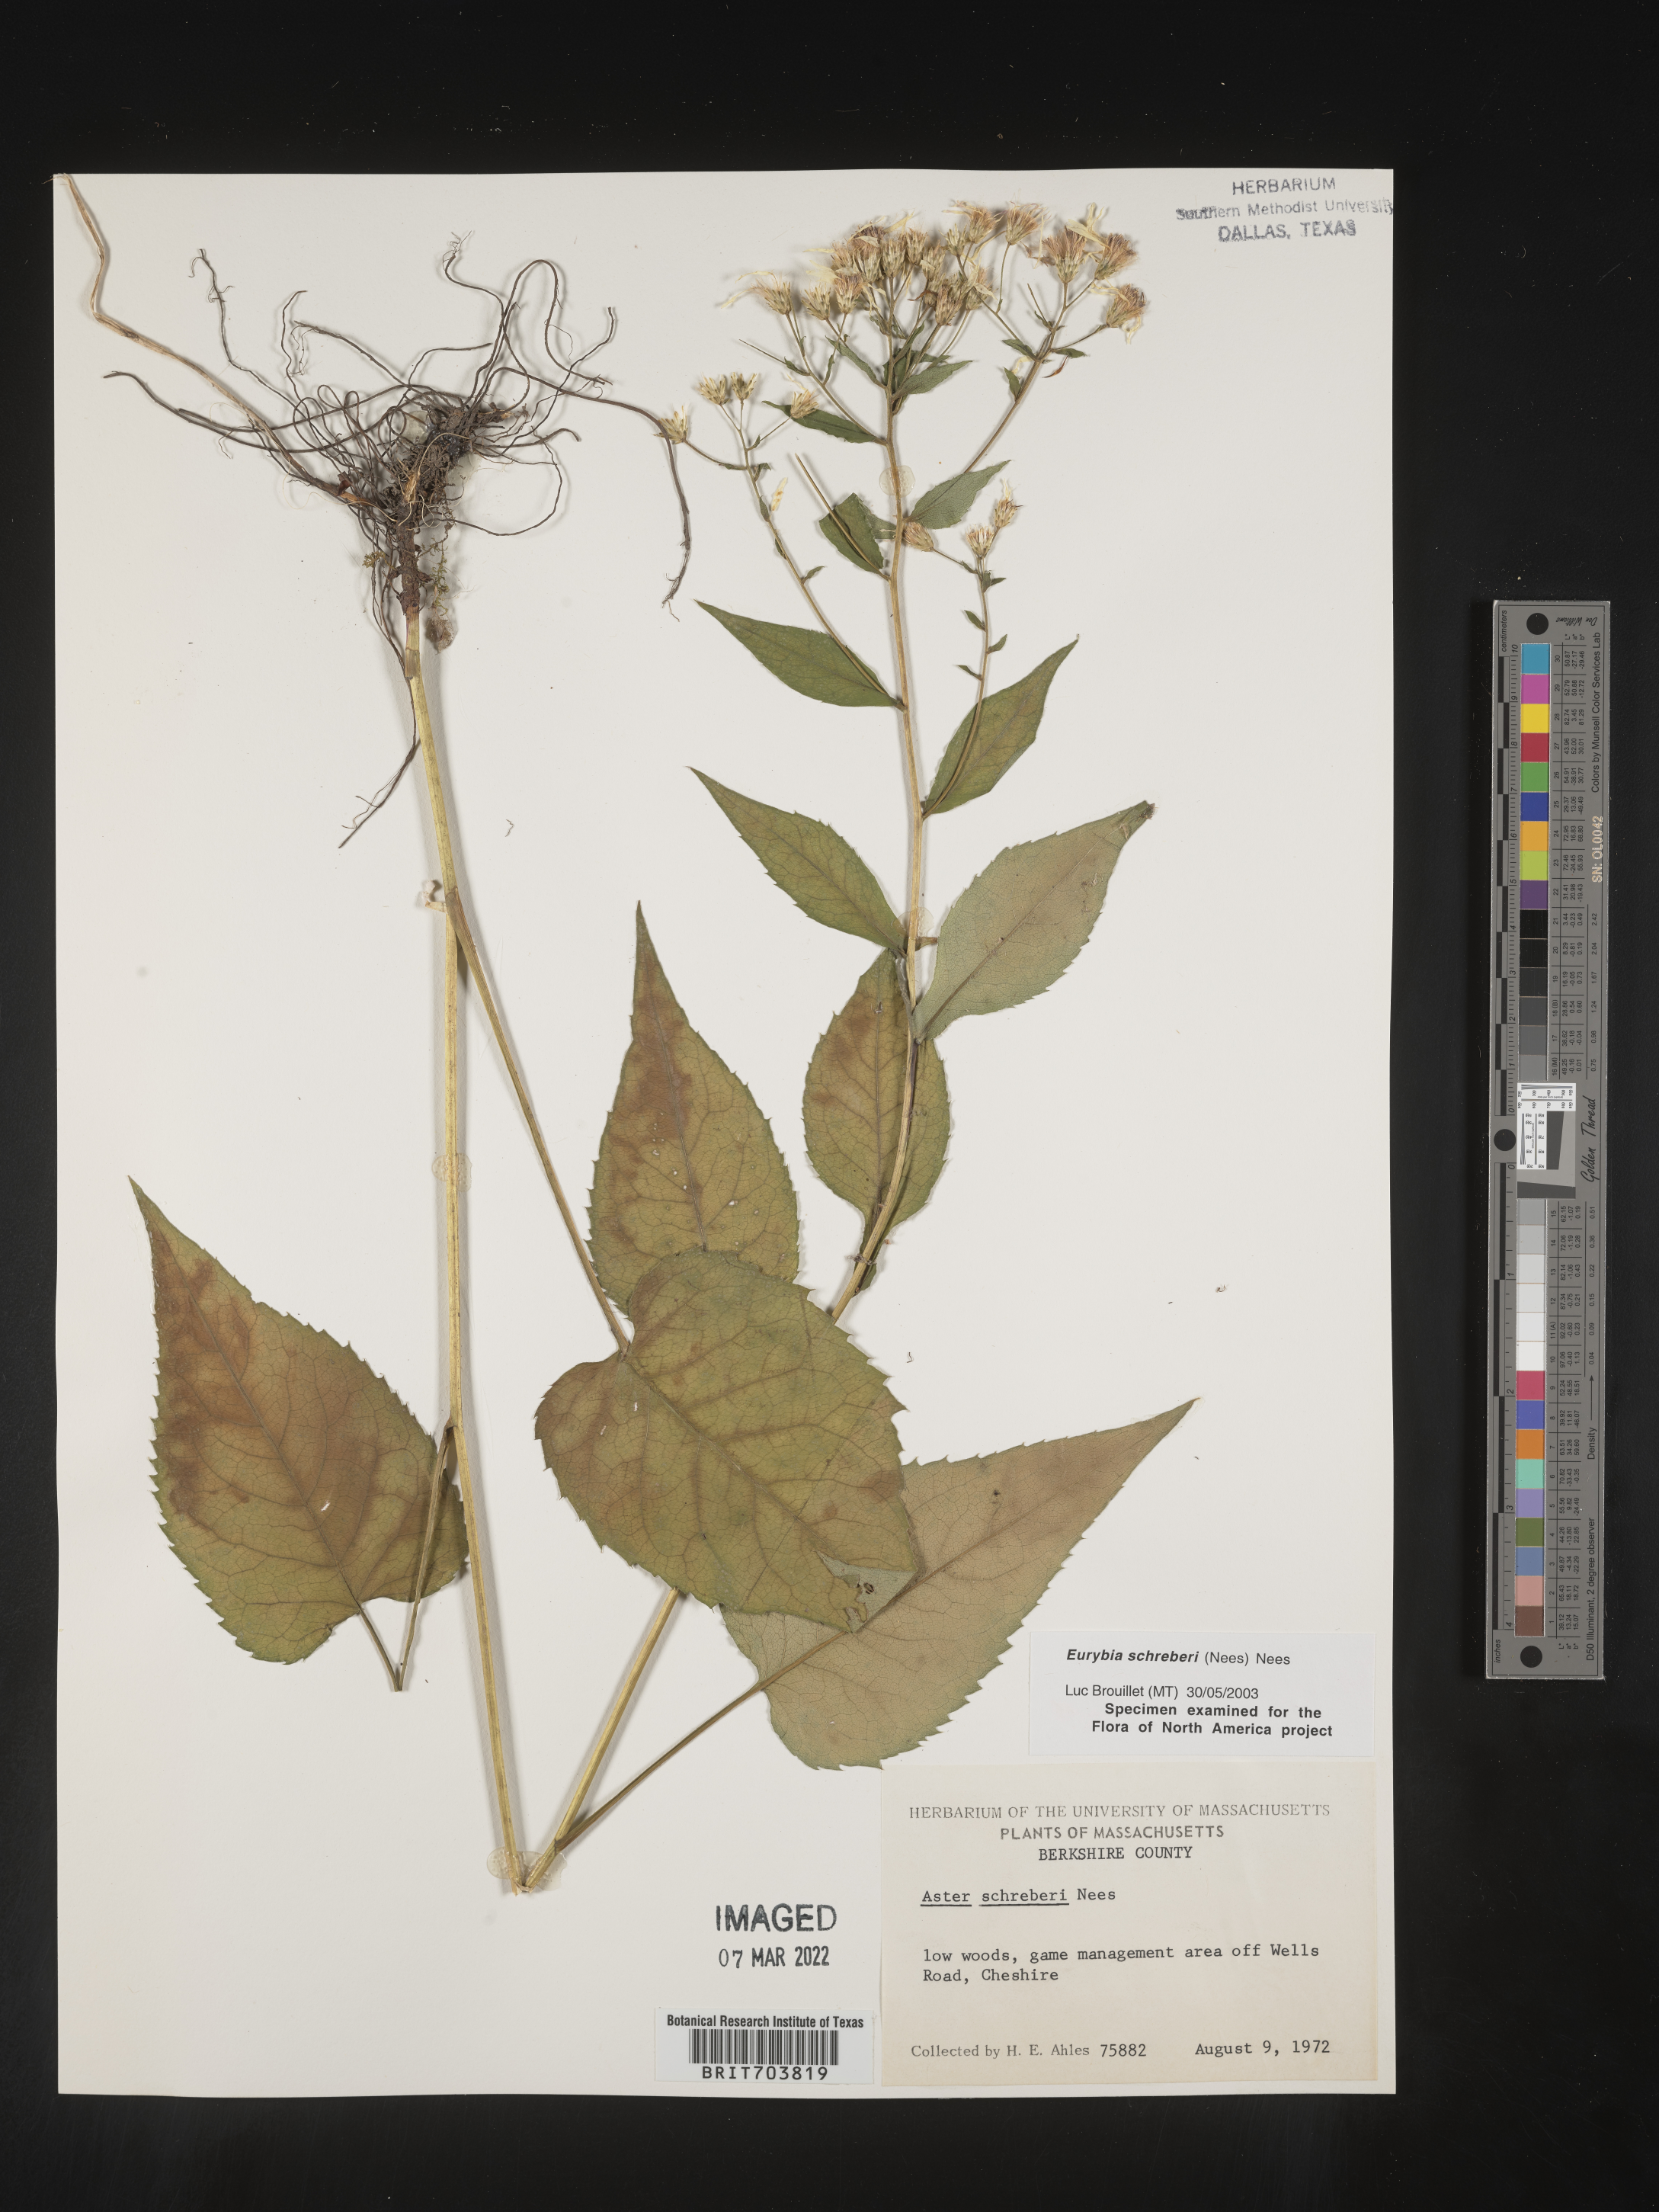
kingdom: Plantae
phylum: Tracheophyta
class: Magnoliopsida
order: Asterales
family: Asteraceae
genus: Eurybia
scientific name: Eurybia schreberi
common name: Schreber's aster
